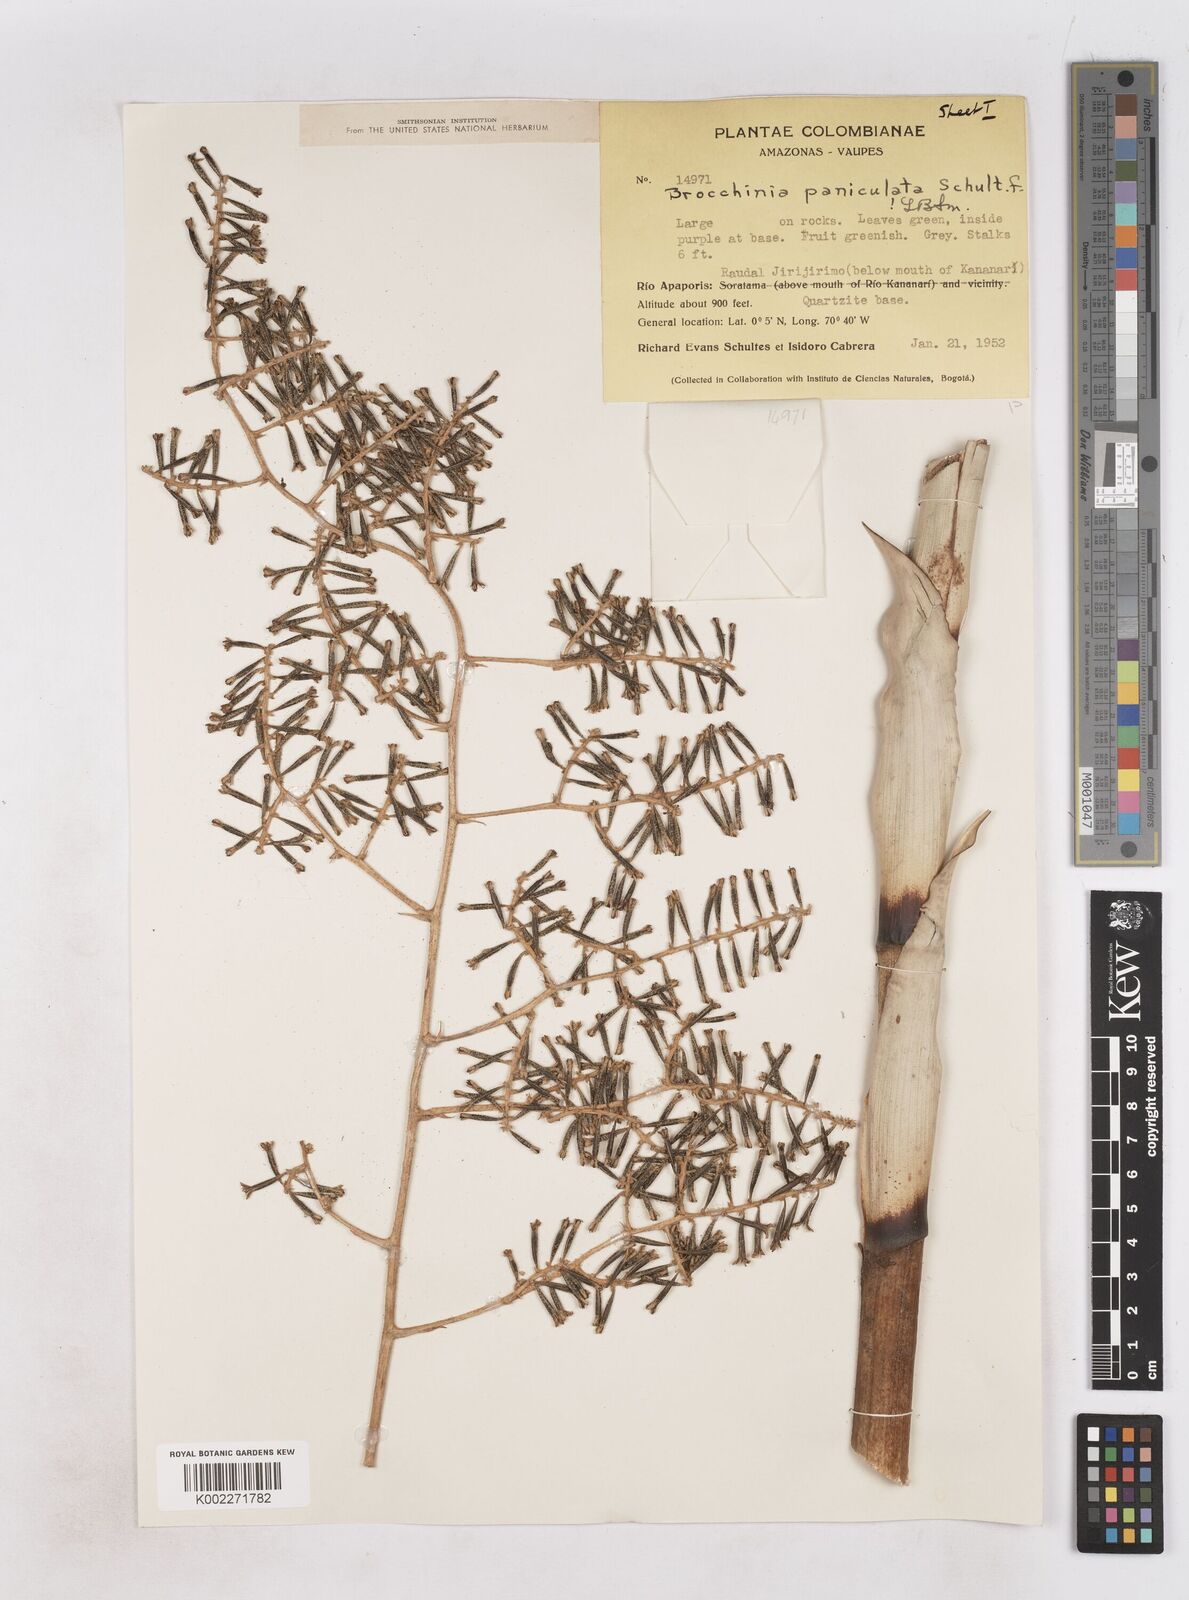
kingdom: Plantae
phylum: Tracheophyta
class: Liliopsida
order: Poales
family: Bromeliaceae
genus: Brocchinia
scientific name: Brocchinia paniculata
